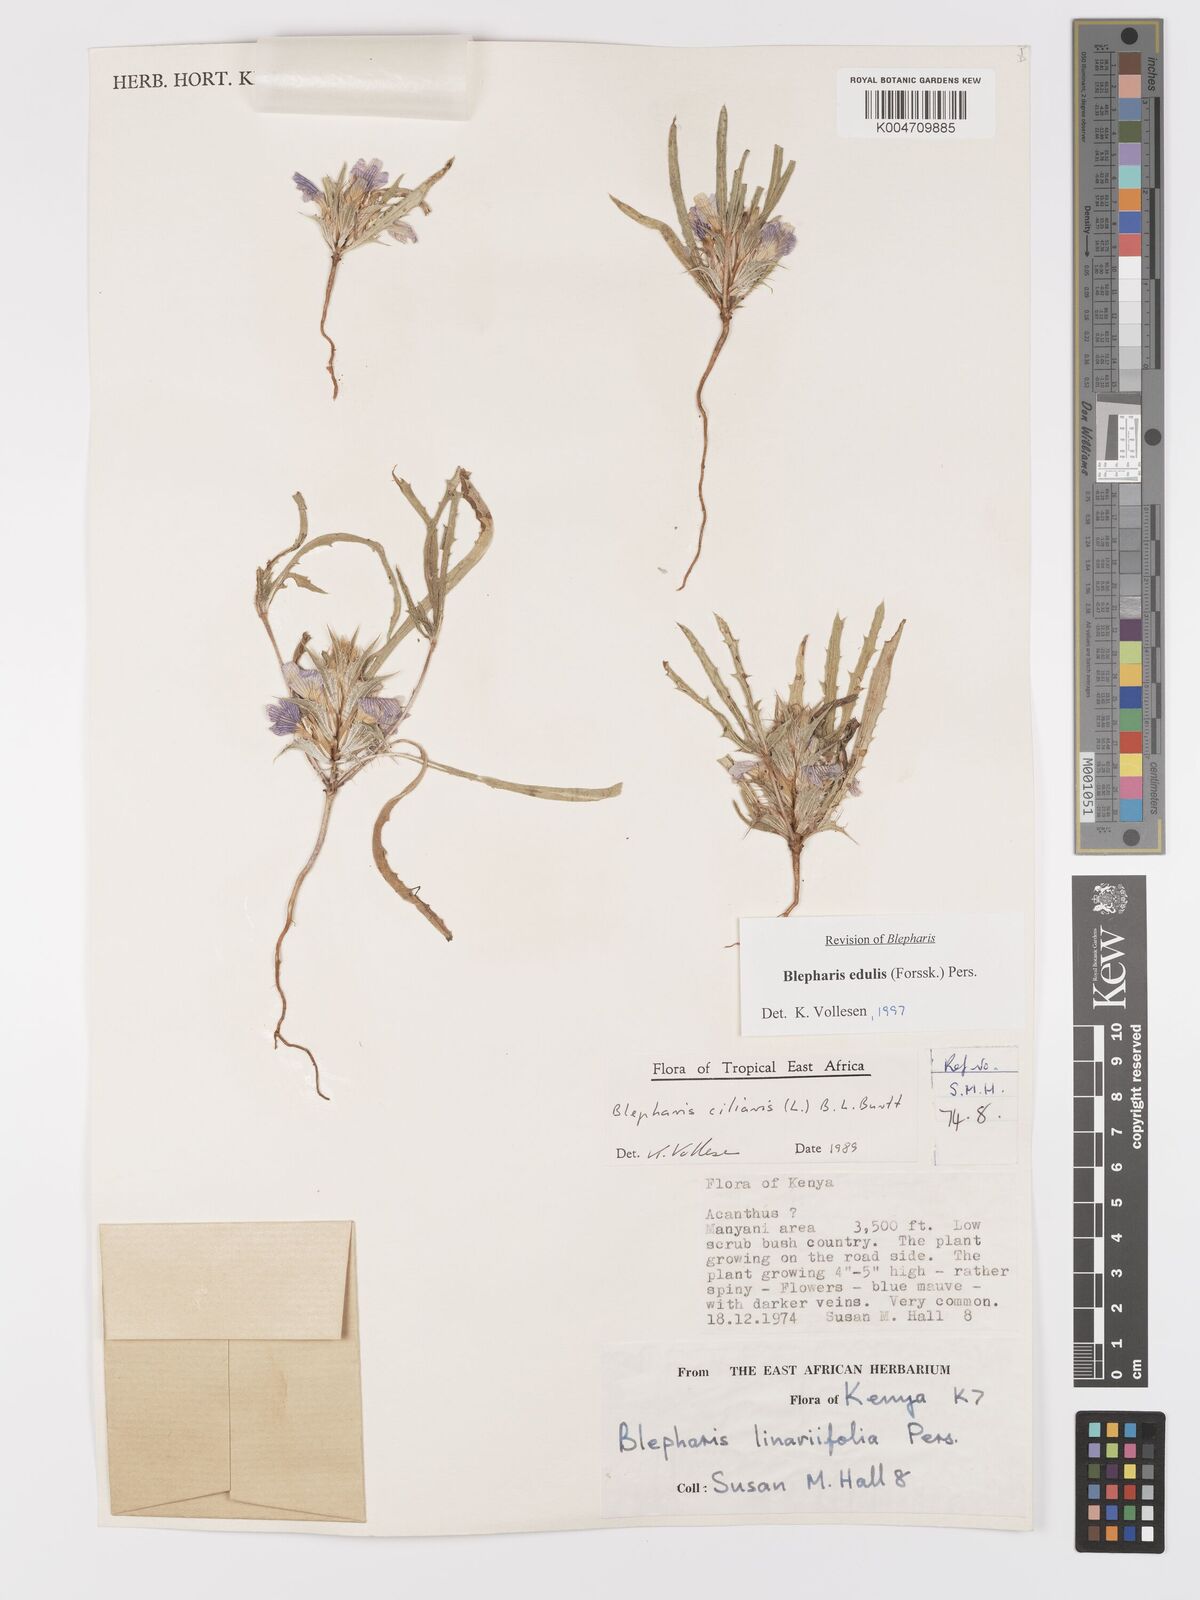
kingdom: Plantae
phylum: Tracheophyta
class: Magnoliopsida
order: Lamiales
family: Acanthaceae
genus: Blepharis
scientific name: Blepharis edulis
